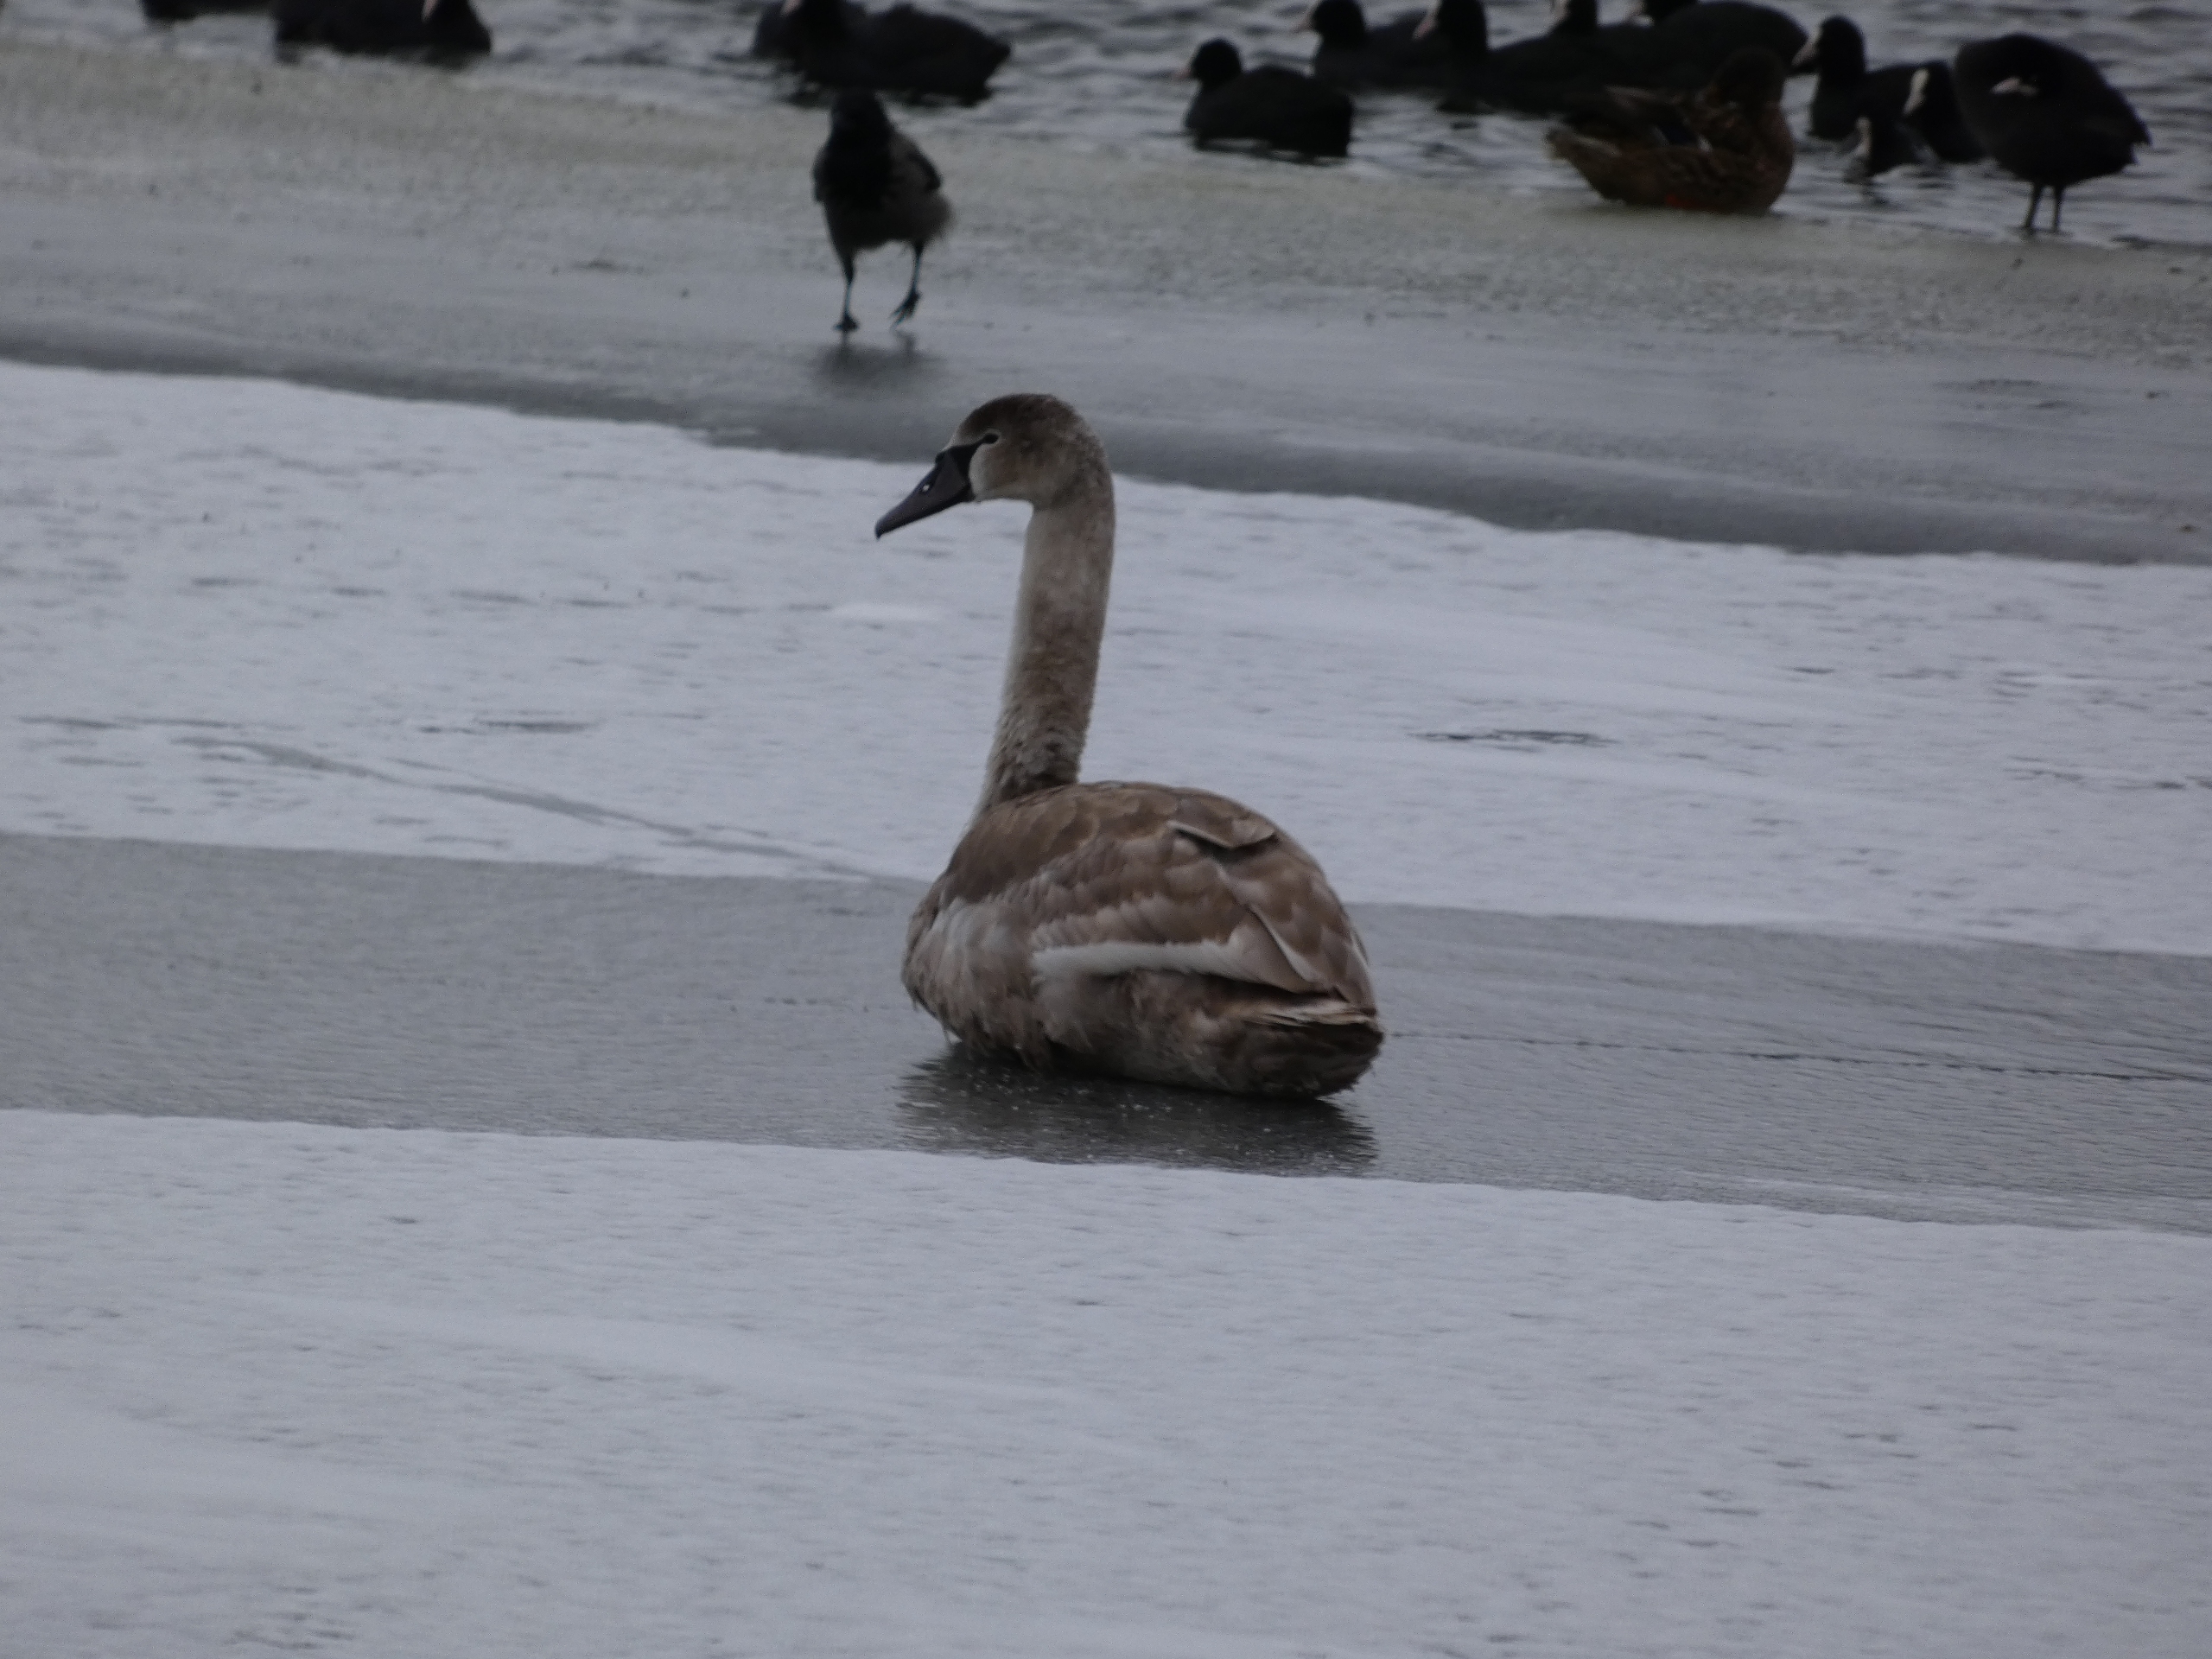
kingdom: Animalia
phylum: Chordata
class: Aves
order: Anseriformes
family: Anatidae
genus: Cygnus
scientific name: Cygnus olor
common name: Knopsvane
